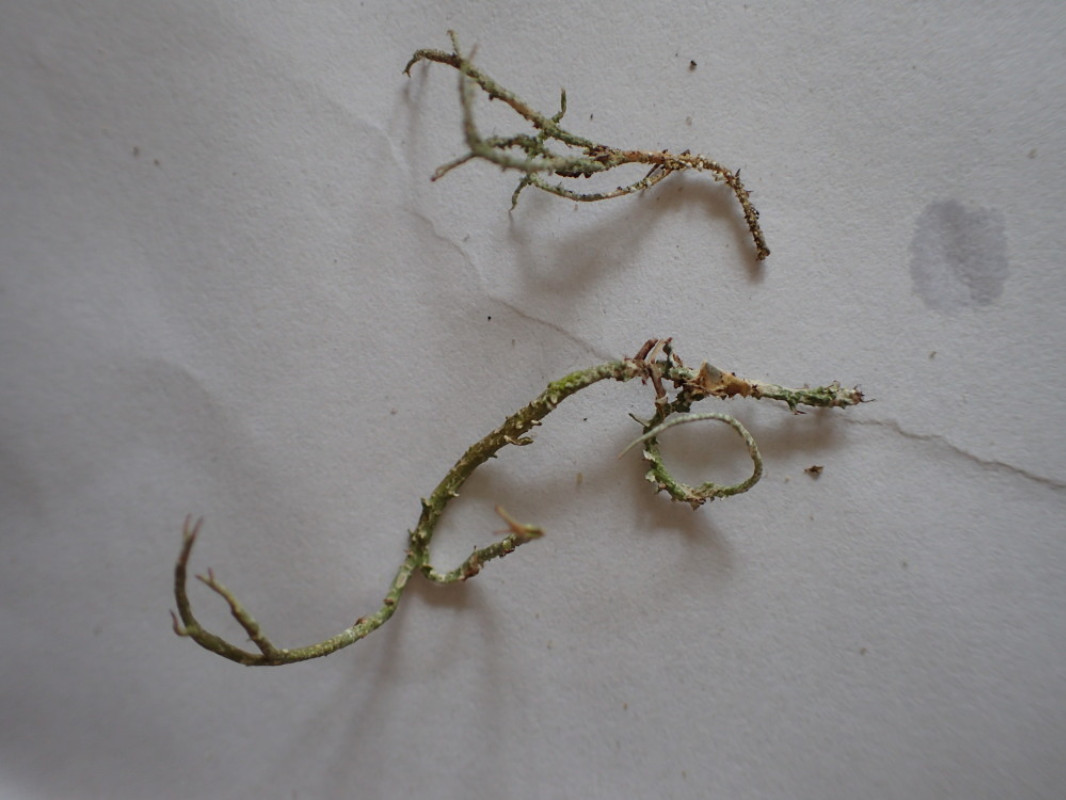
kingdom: Fungi
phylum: Ascomycota
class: Lecanoromycetes
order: Lecanorales
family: Cladoniaceae
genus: Cladonia
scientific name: Cladonia scabriuscula
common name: ru bægerlav
